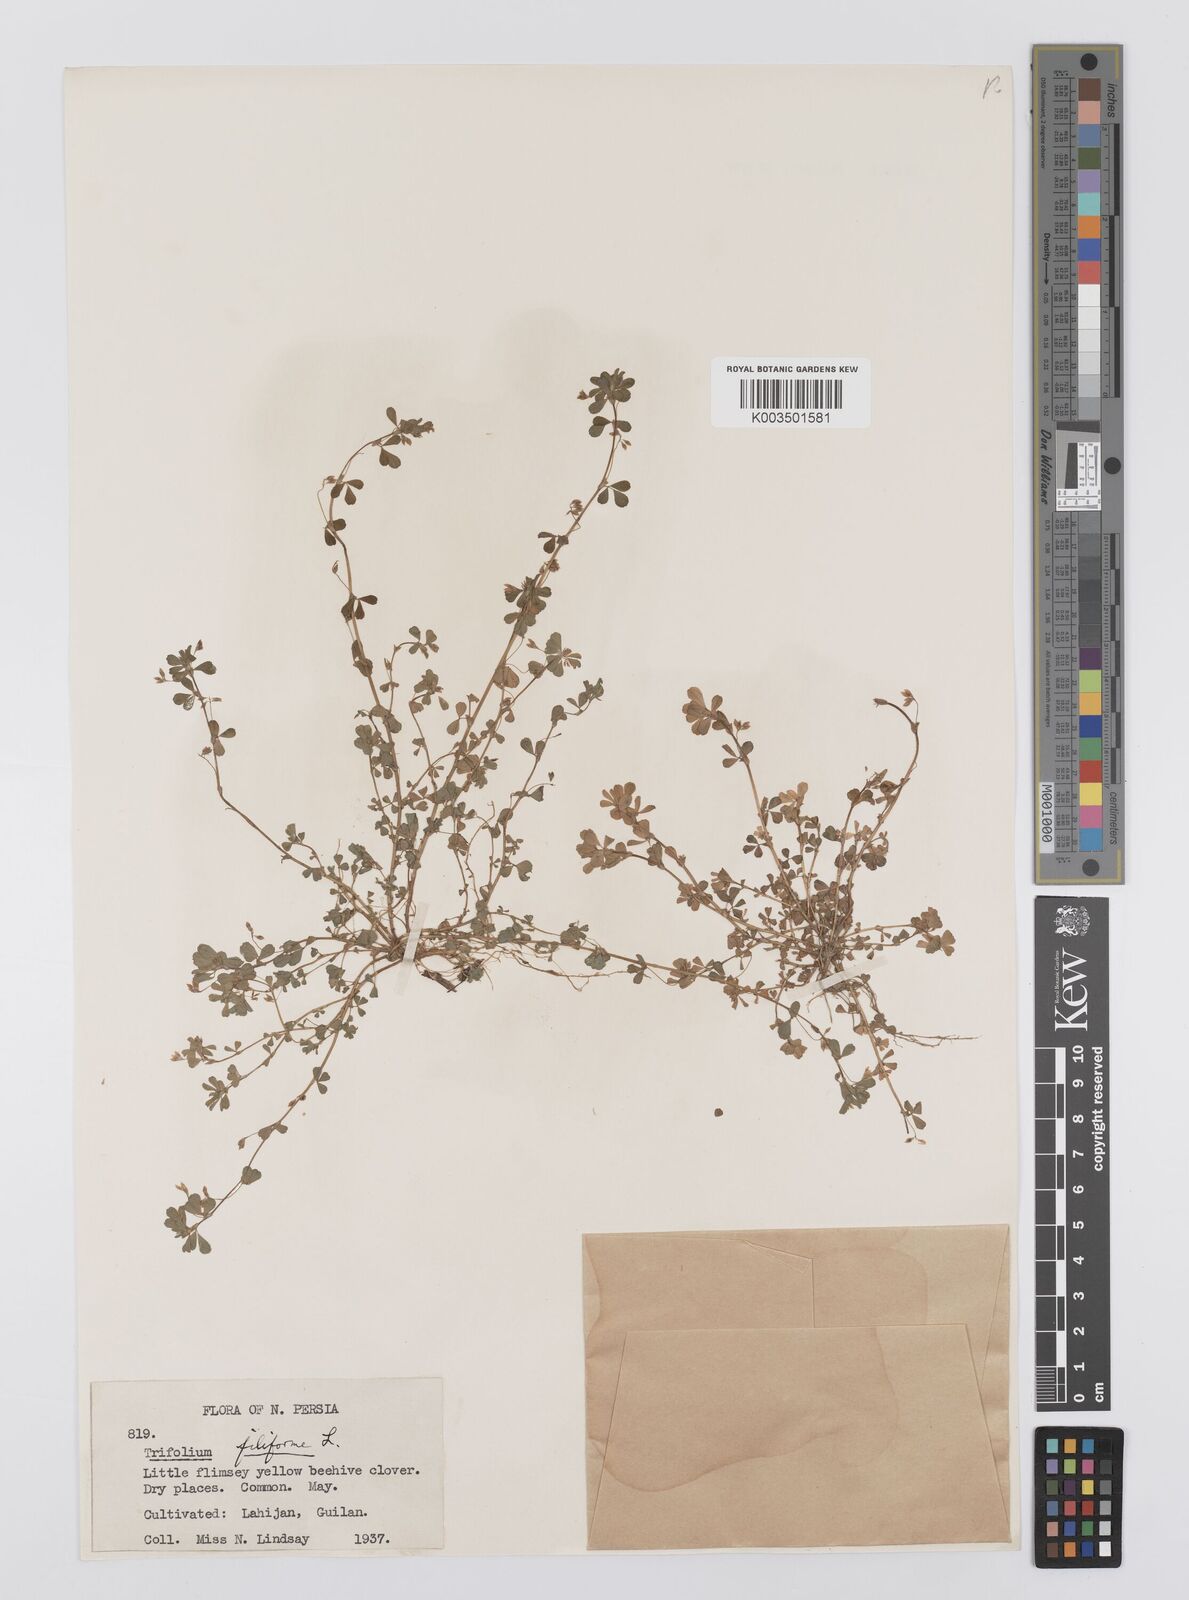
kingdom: Plantae
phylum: Tracheophyta
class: Magnoliopsida
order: Fabales
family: Fabaceae
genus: Trifolium
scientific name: Trifolium micranthum
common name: Slender trefoil
